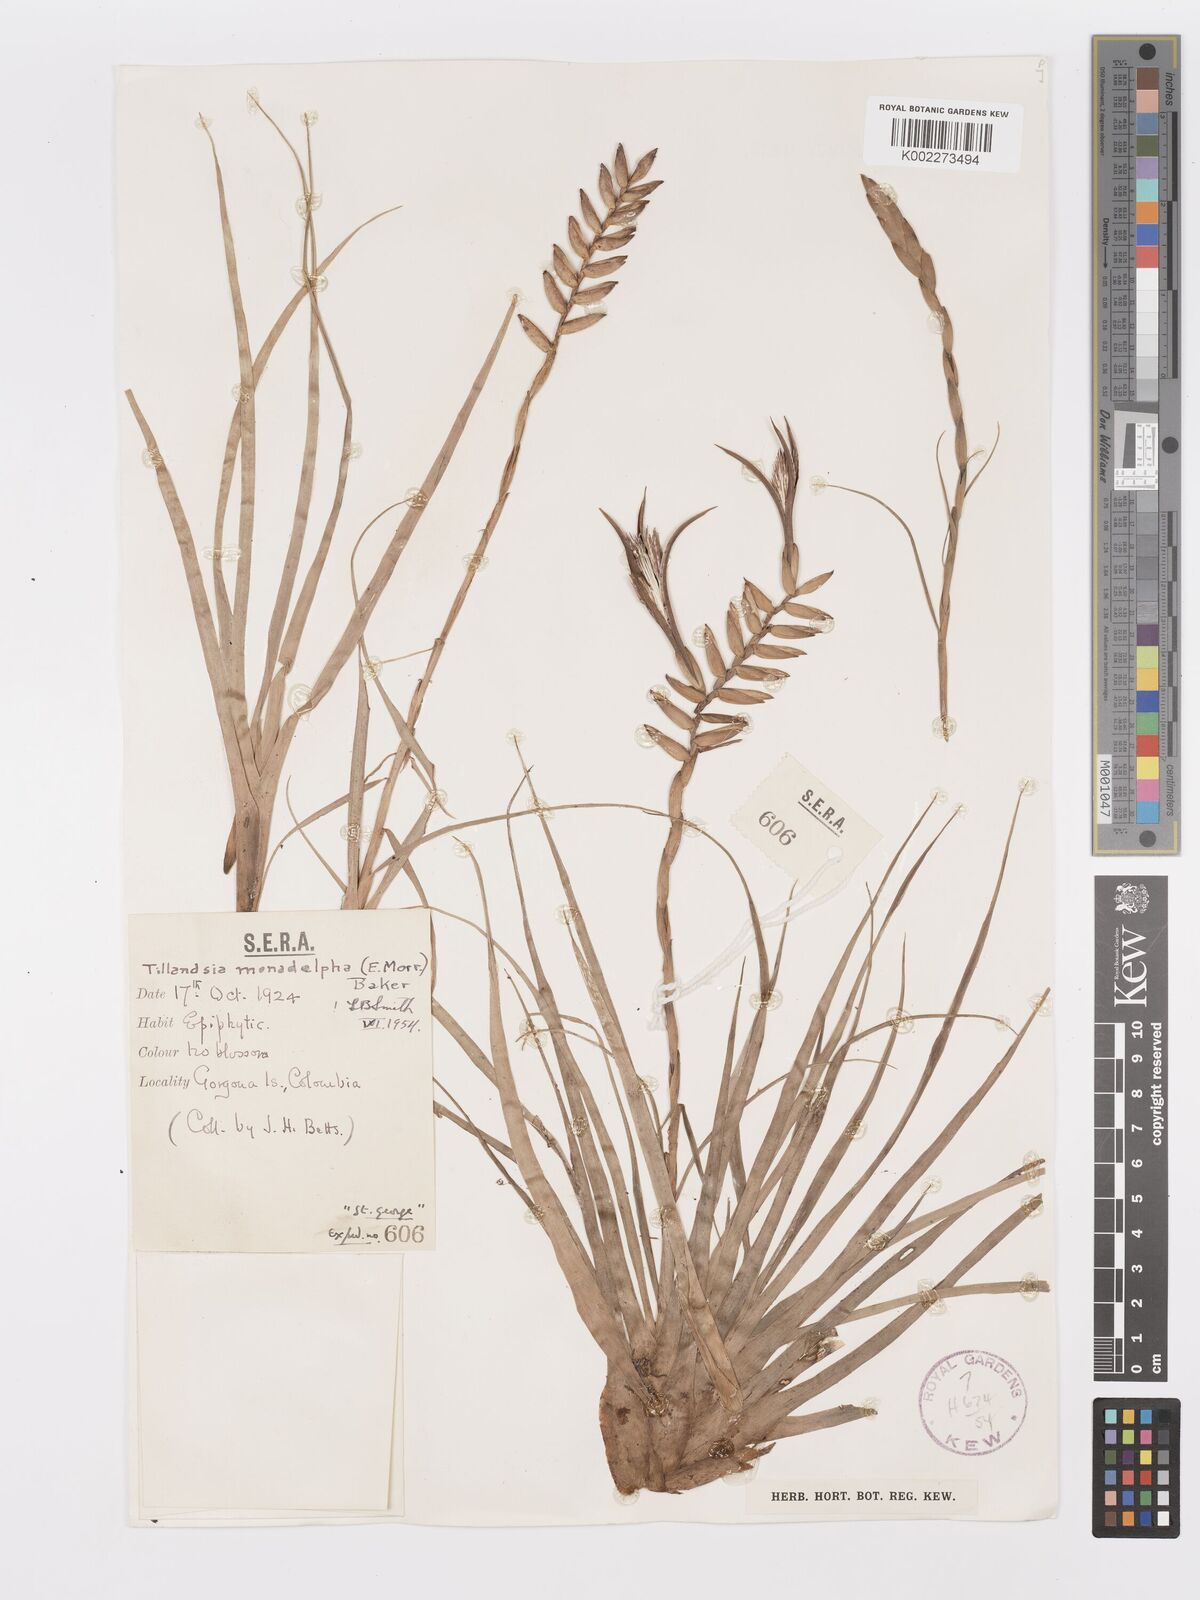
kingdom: Plantae
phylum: Tracheophyta
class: Liliopsida
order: Poales
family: Bromeliaceae
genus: Lemeltonia
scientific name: Lemeltonia monadelpha
